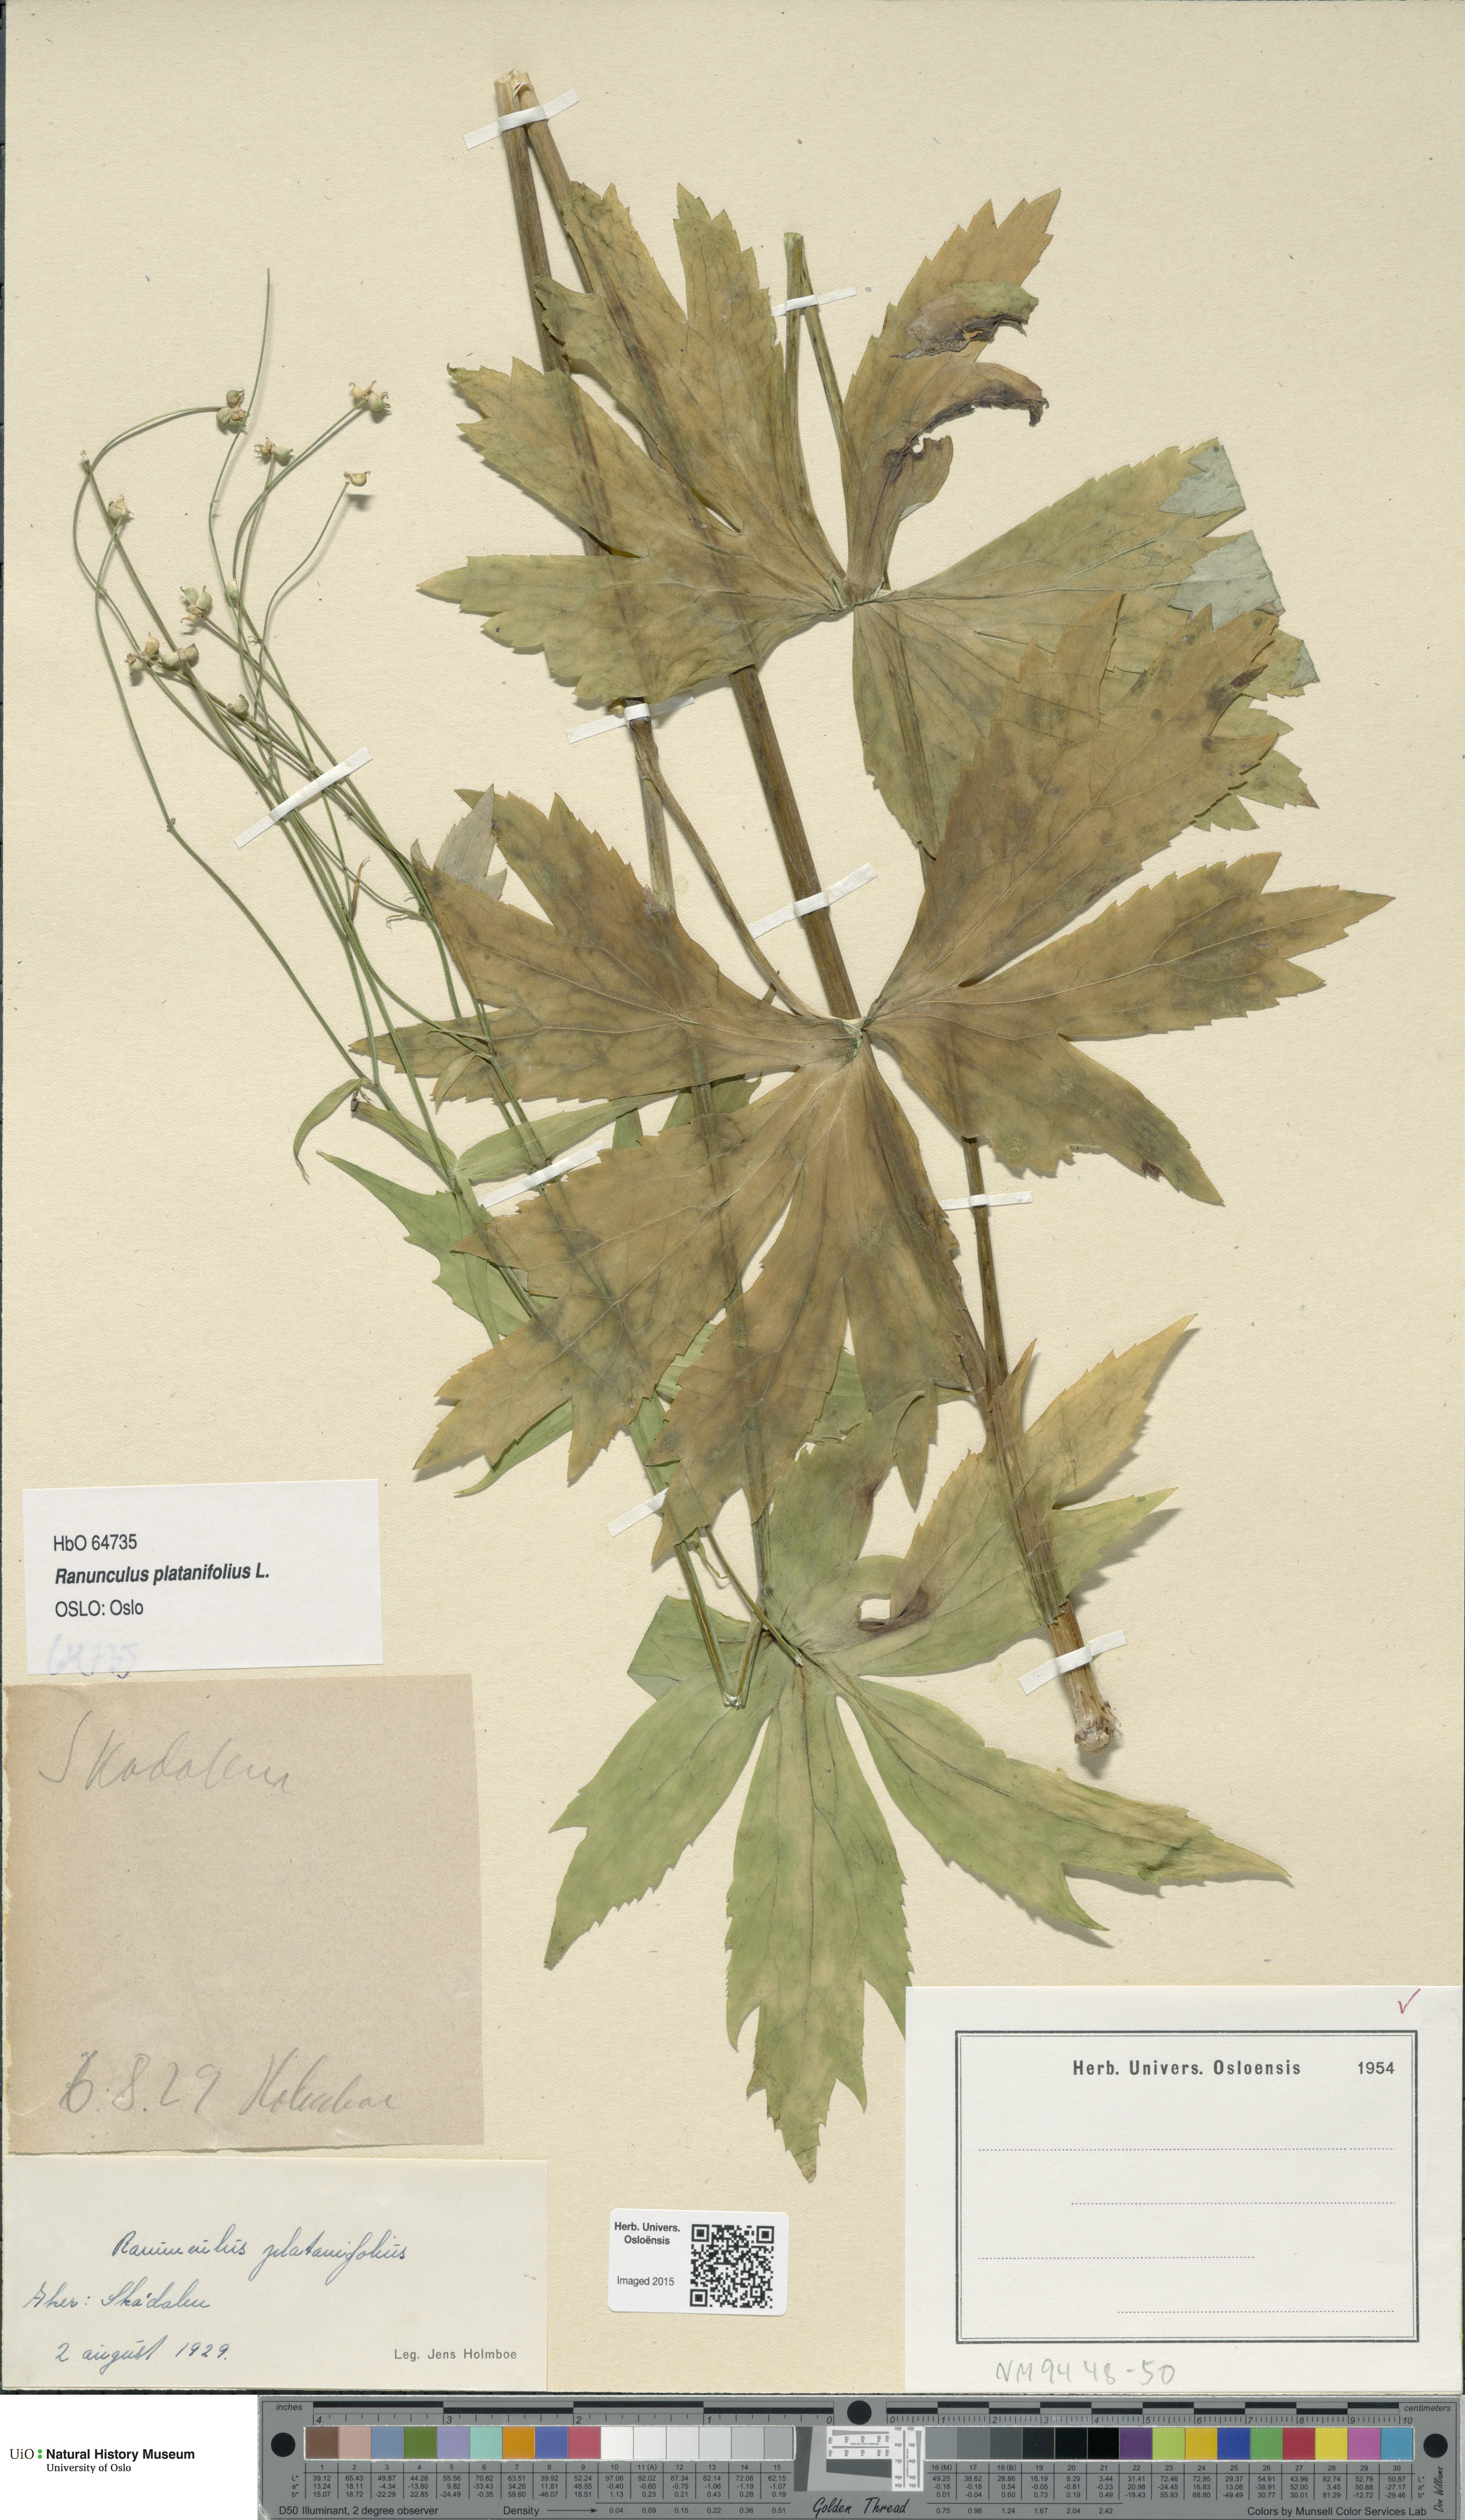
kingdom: Plantae
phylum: Tracheophyta
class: Magnoliopsida
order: Ranunculales
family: Ranunculaceae
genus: Ranunculus
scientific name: Ranunculus platanifolius
